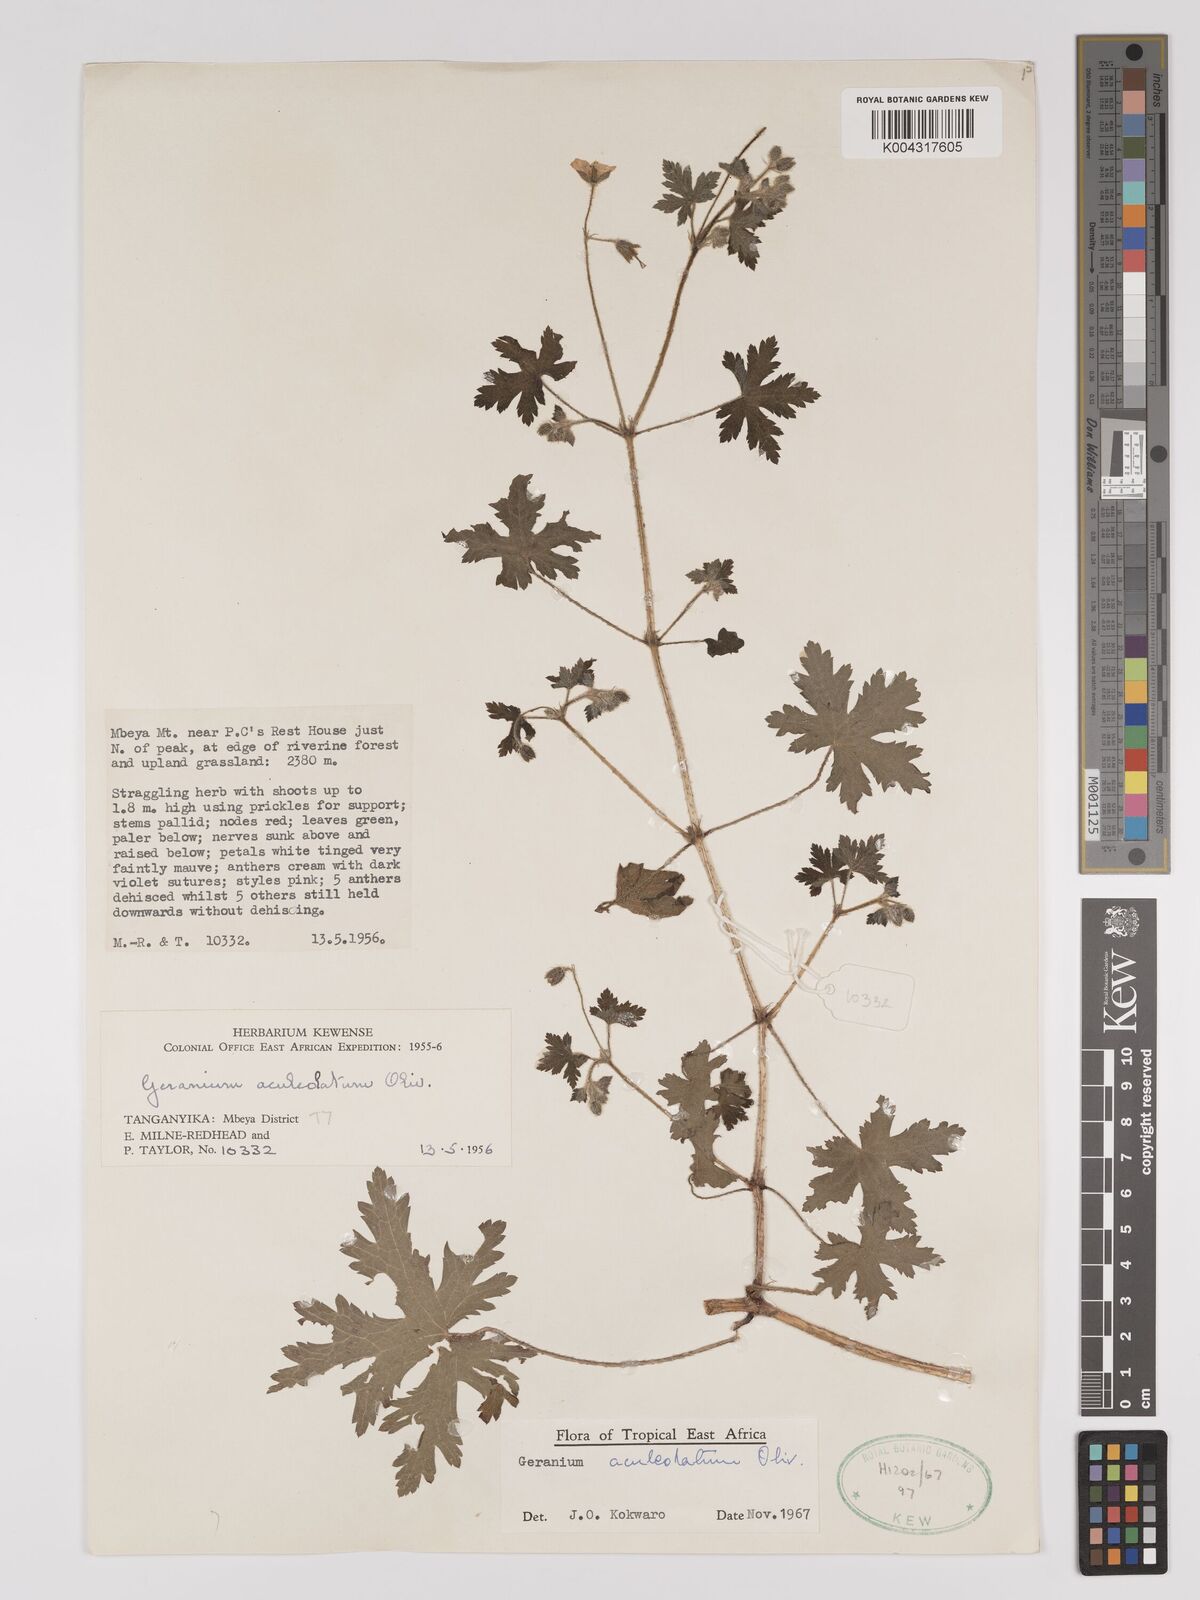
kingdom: Plantae
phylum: Tracheophyta
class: Magnoliopsida
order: Geraniales
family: Geraniaceae
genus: Geranium
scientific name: Geranium aculeolatum
